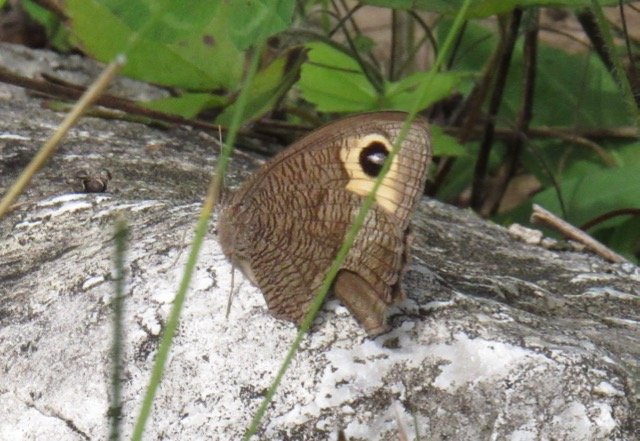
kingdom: Animalia
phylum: Arthropoda
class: Insecta
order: Lepidoptera
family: Nymphalidae
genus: Cercyonis
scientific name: Cercyonis pegala
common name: Common Wood-Nymph
